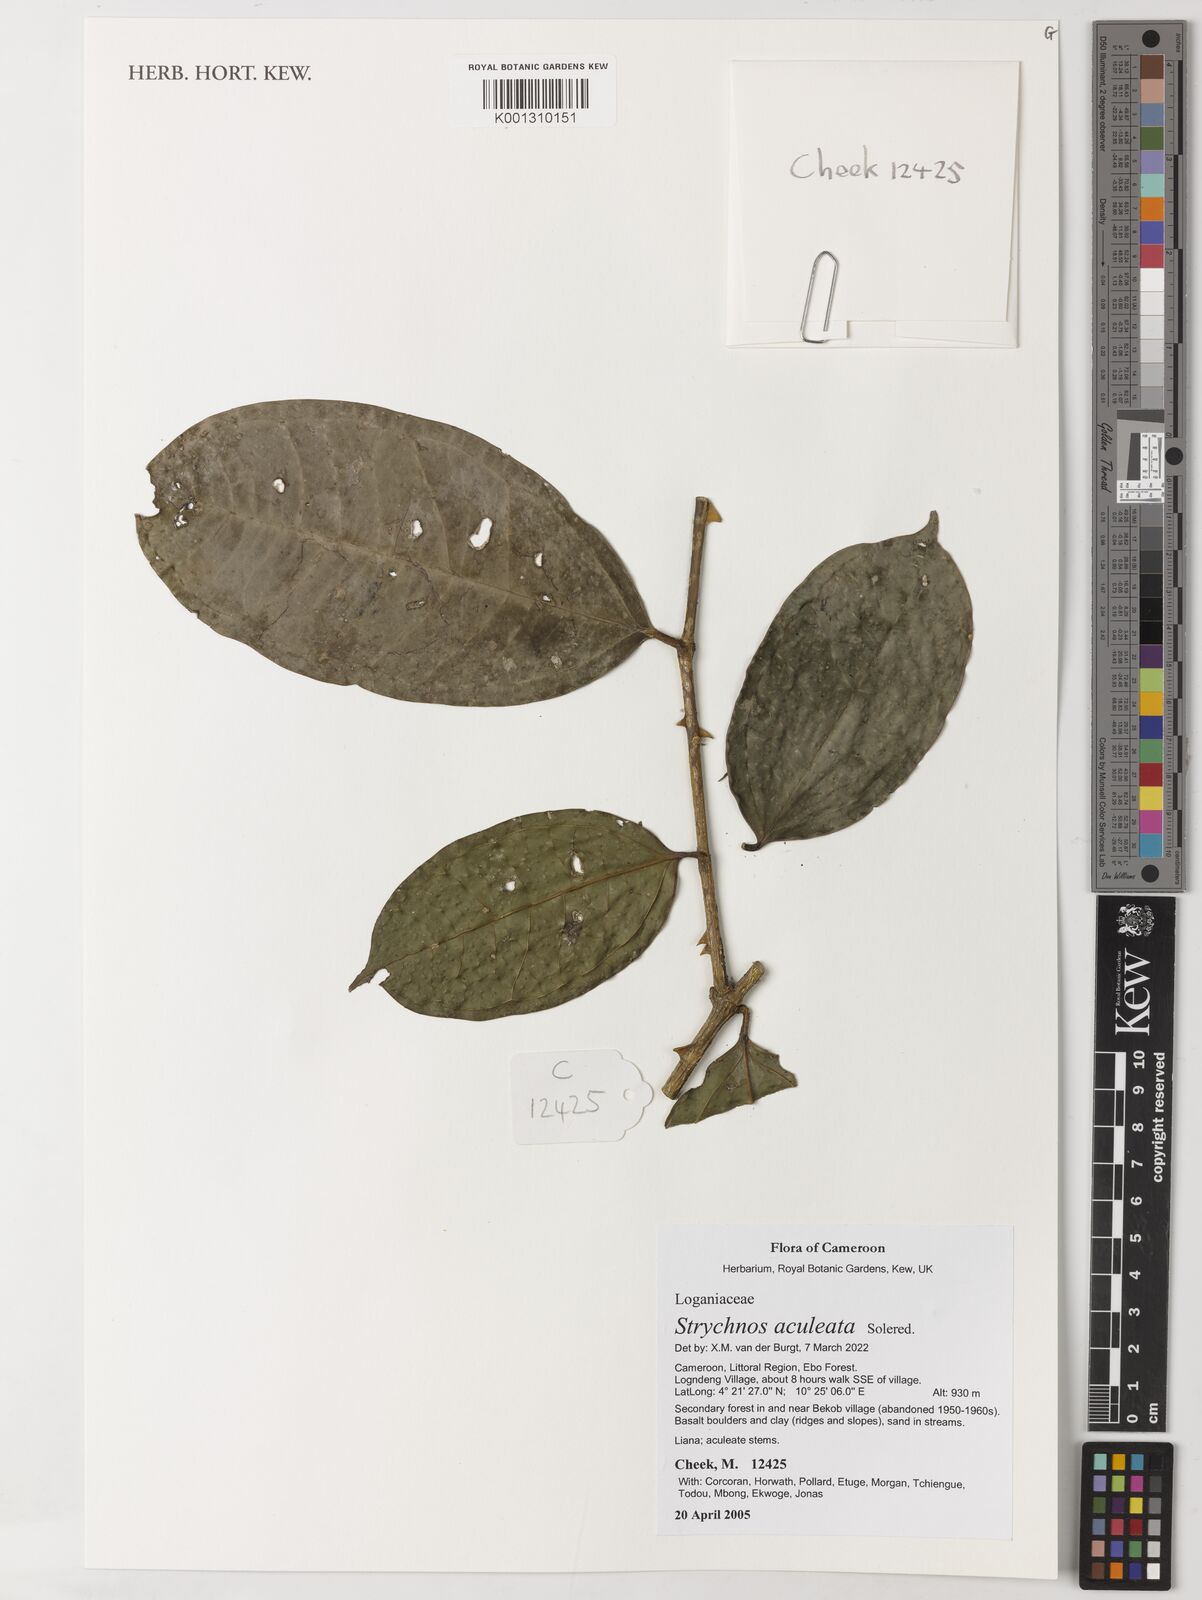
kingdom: Plantae
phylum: Tracheophyta
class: Magnoliopsida
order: Gentianales
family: Loganiaceae
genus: Strychnos
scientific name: Strychnos aculeata
